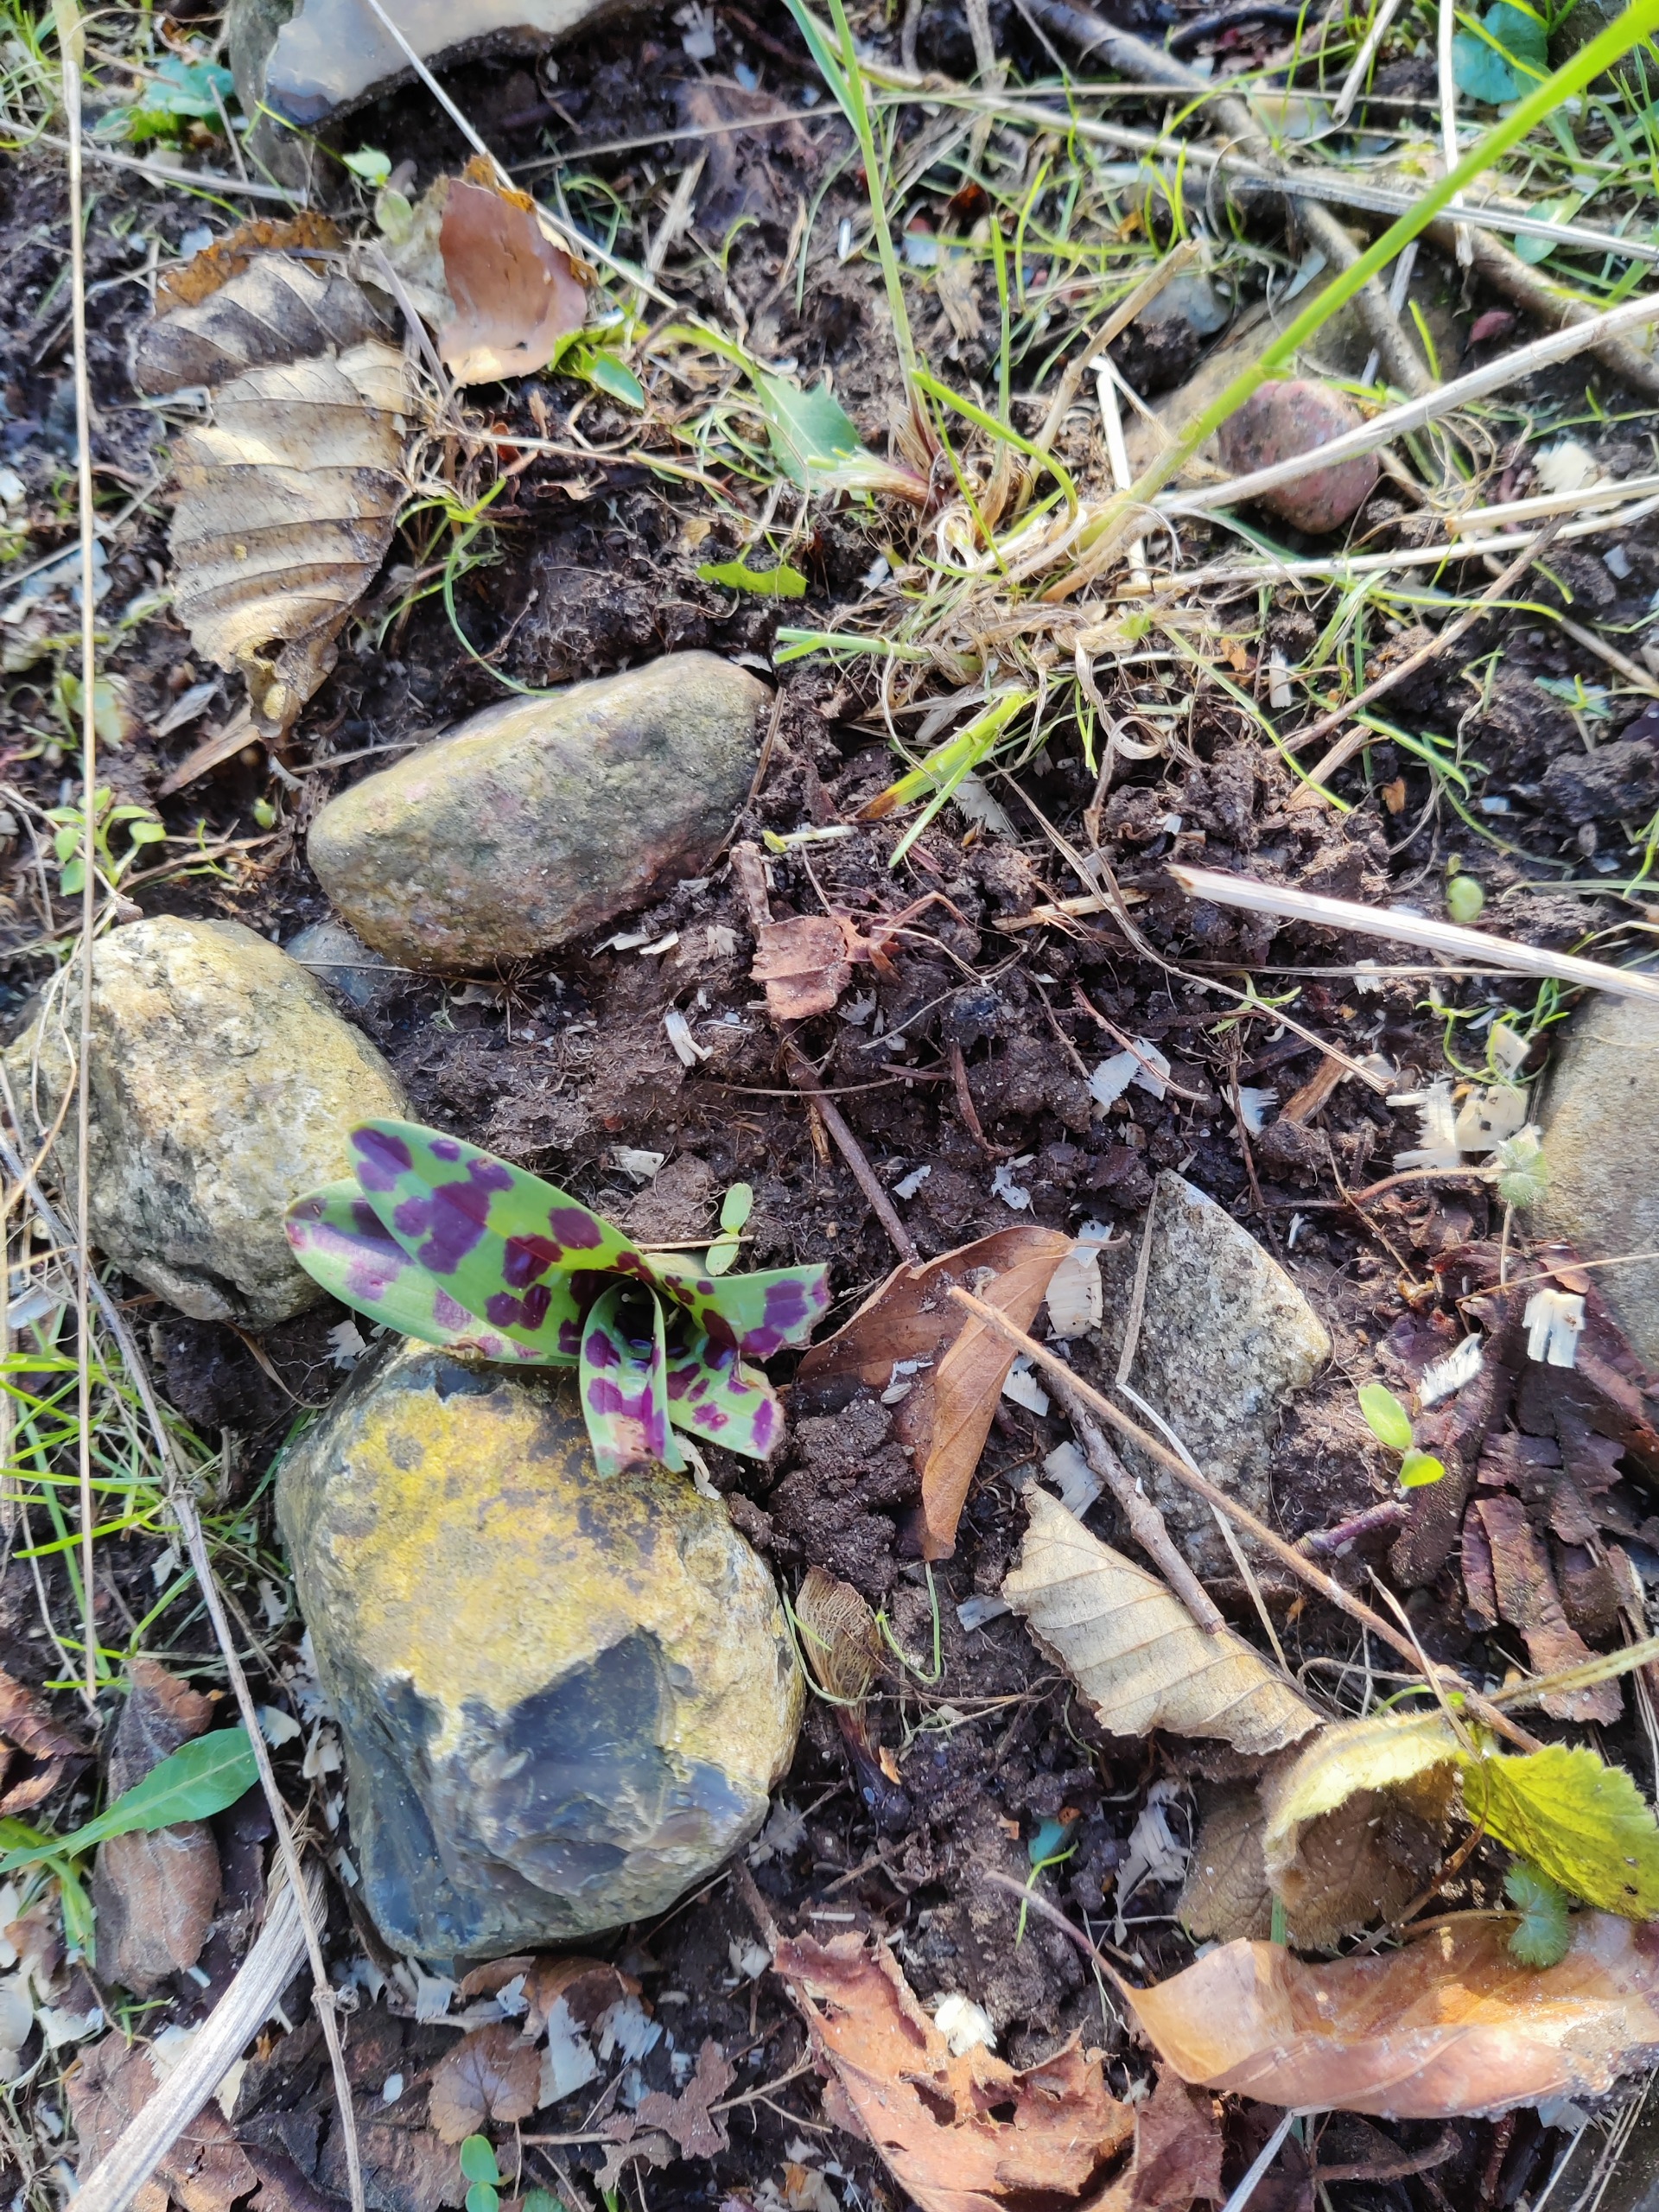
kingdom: Plantae
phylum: Tracheophyta
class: Liliopsida
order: Asparagales
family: Orchidaceae
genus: Orchis
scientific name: Orchis mascula
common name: Tyndakset gøgeurt
